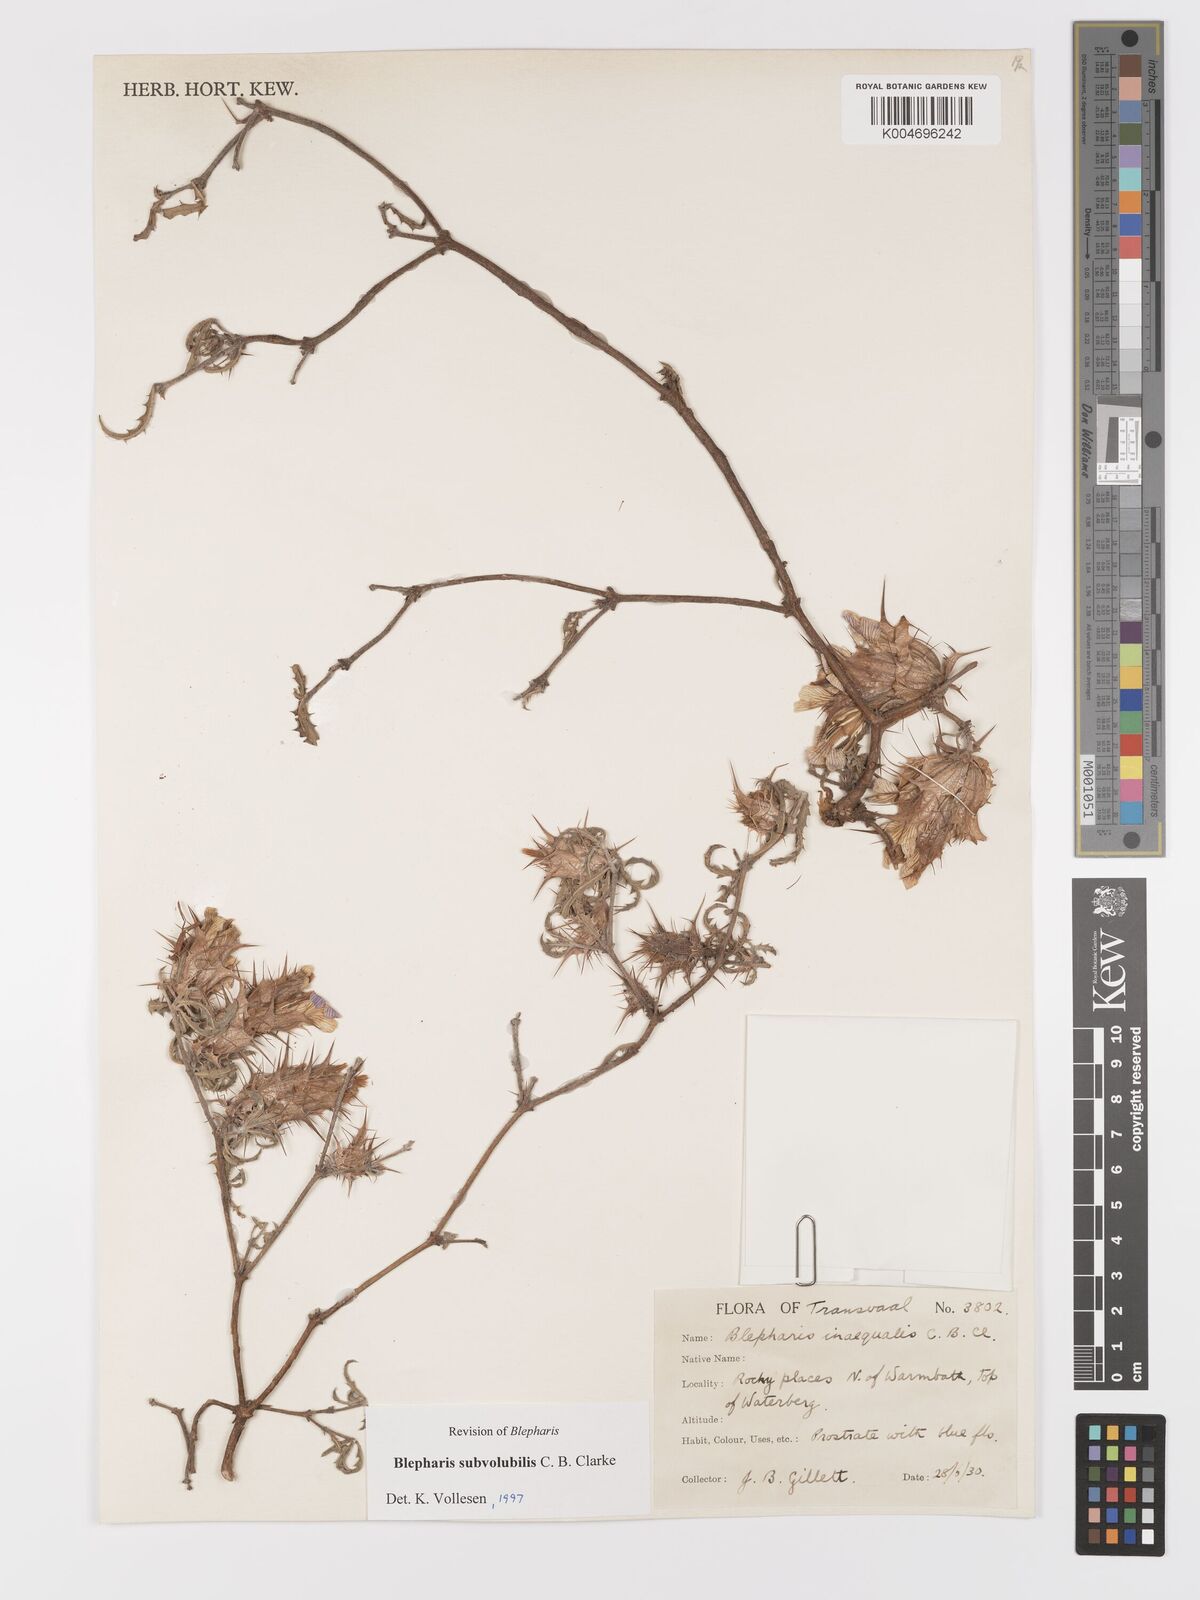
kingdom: Plantae
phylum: Tracheophyta
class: Magnoliopsida
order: Lamiales
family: Acanthaceae
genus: Blepharis
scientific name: Blepharis subvolubilis
